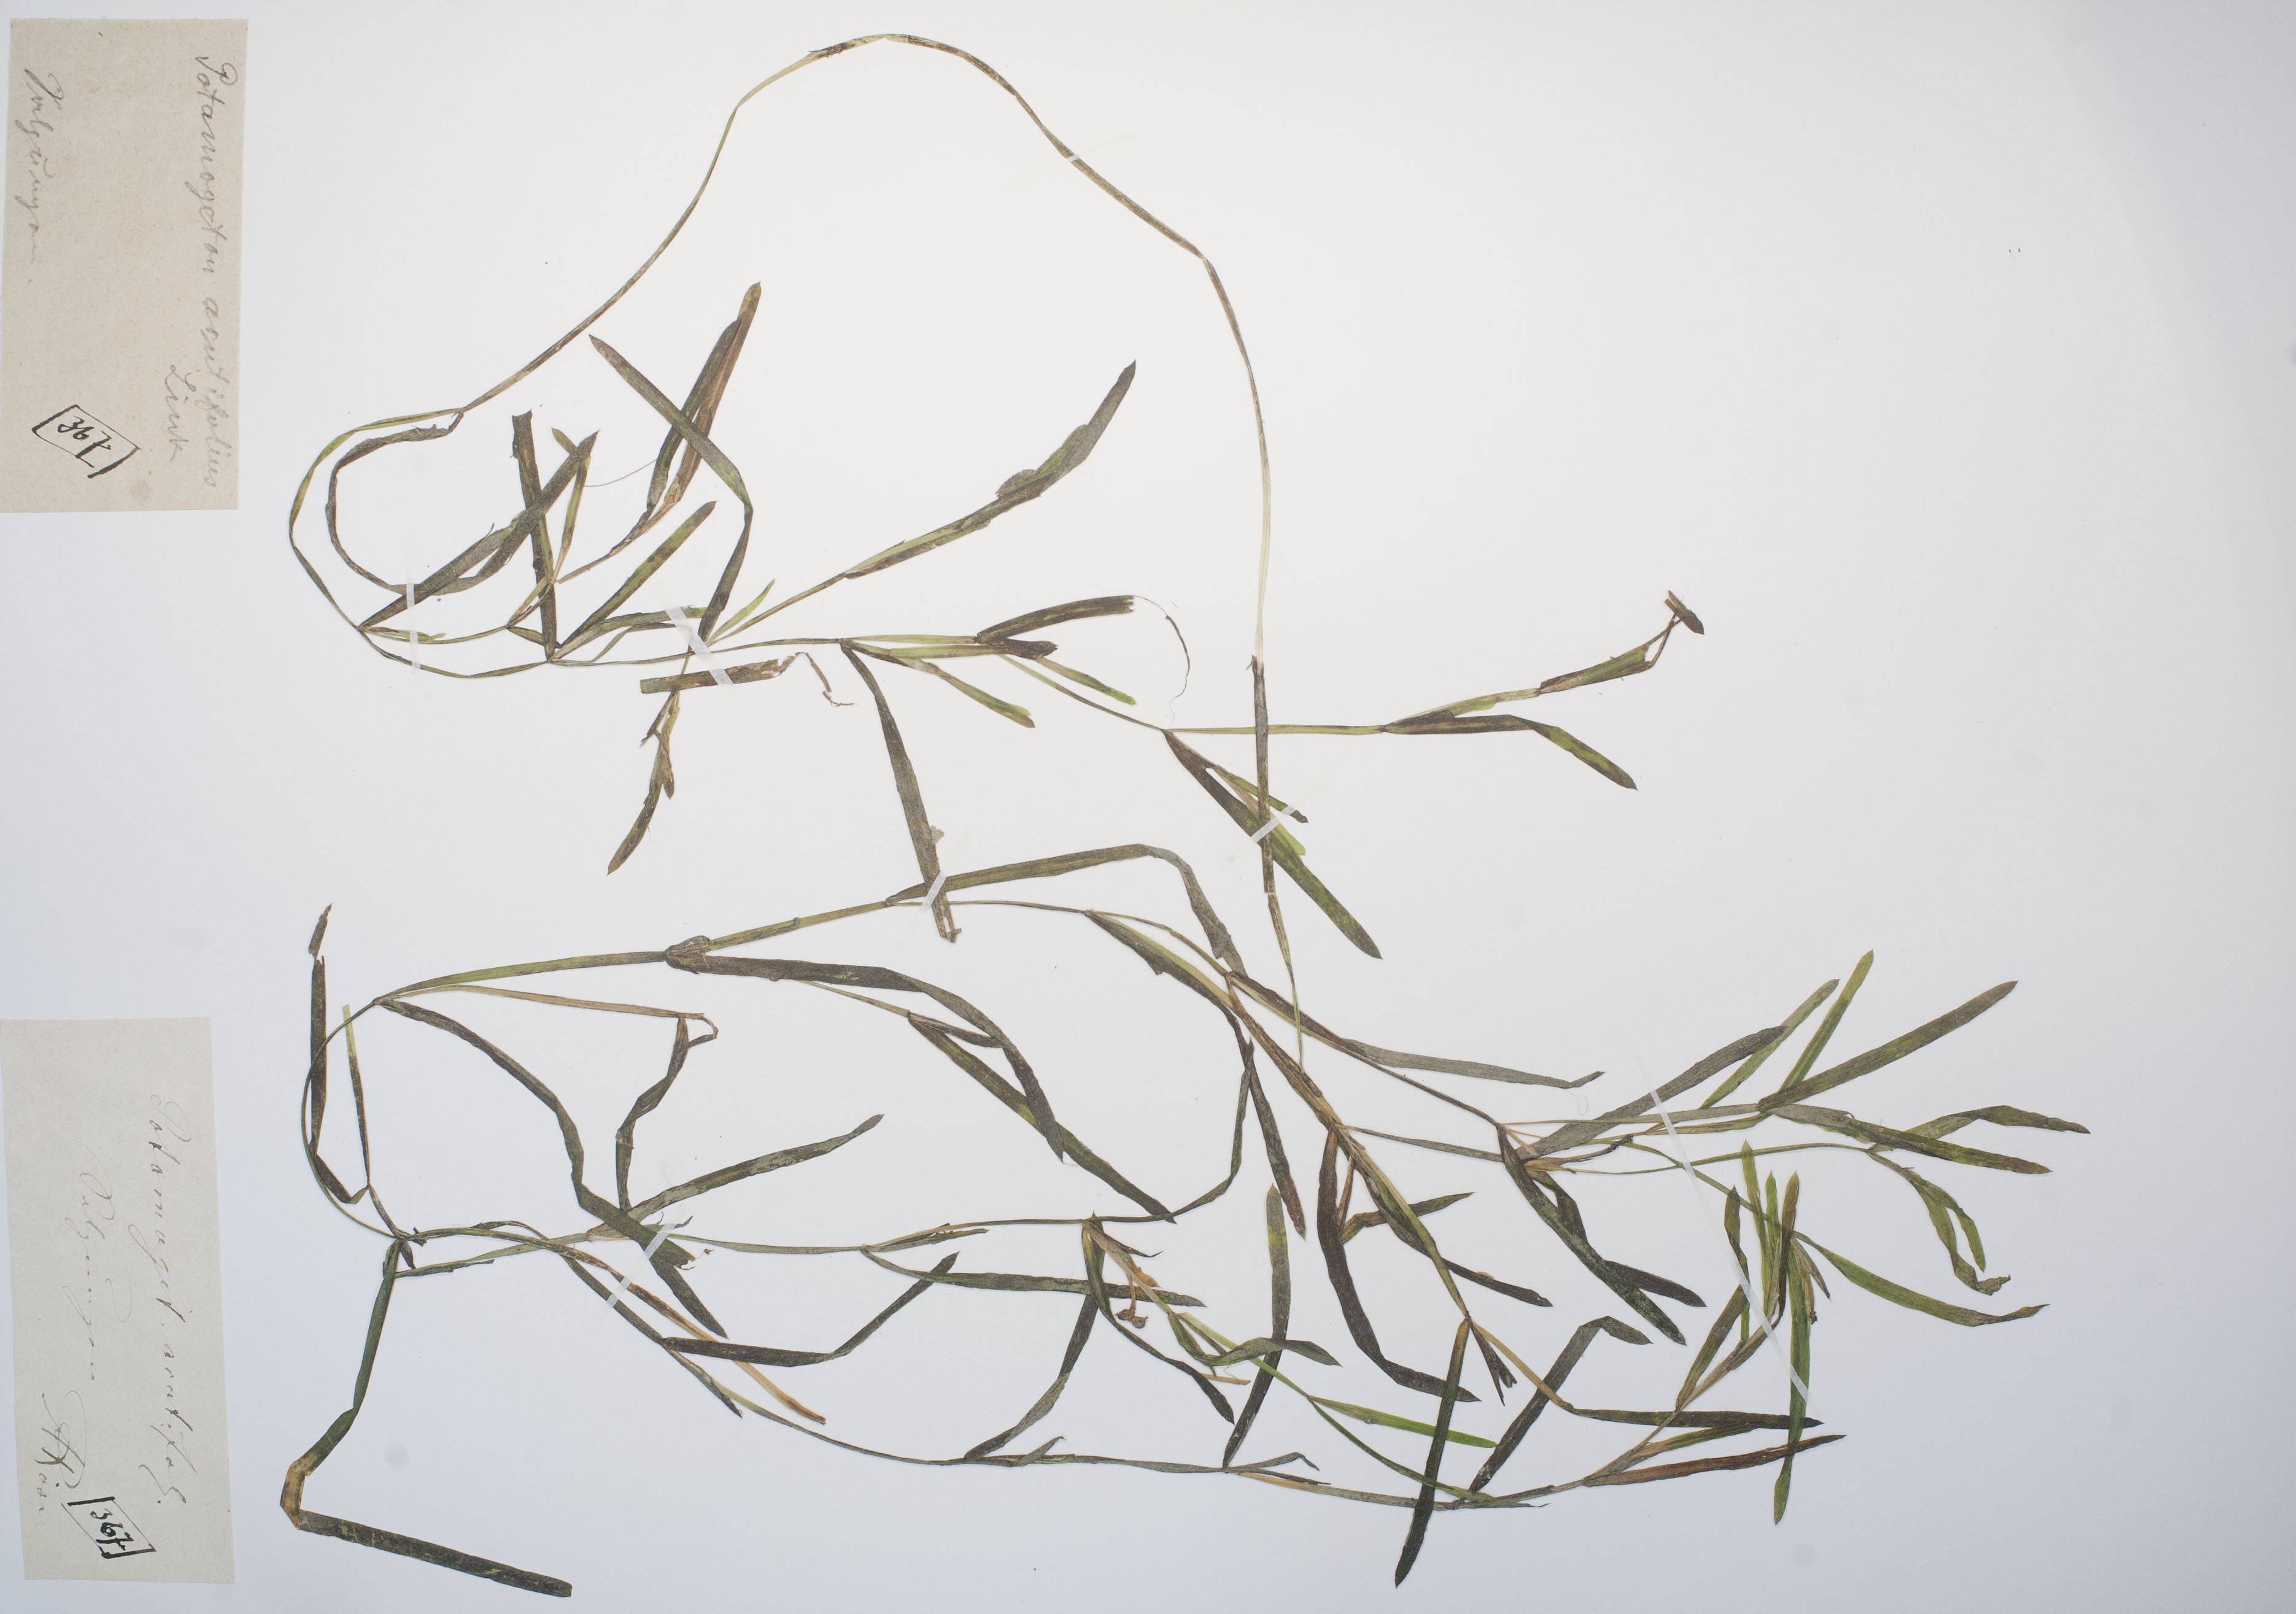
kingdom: Plantae
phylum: Tracheophyta
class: Liliopsida
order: Alismatales
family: Potamogetonaceae
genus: Potamogeton
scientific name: Potamogeton acutifolius
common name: Sharp-leaved pondweed
